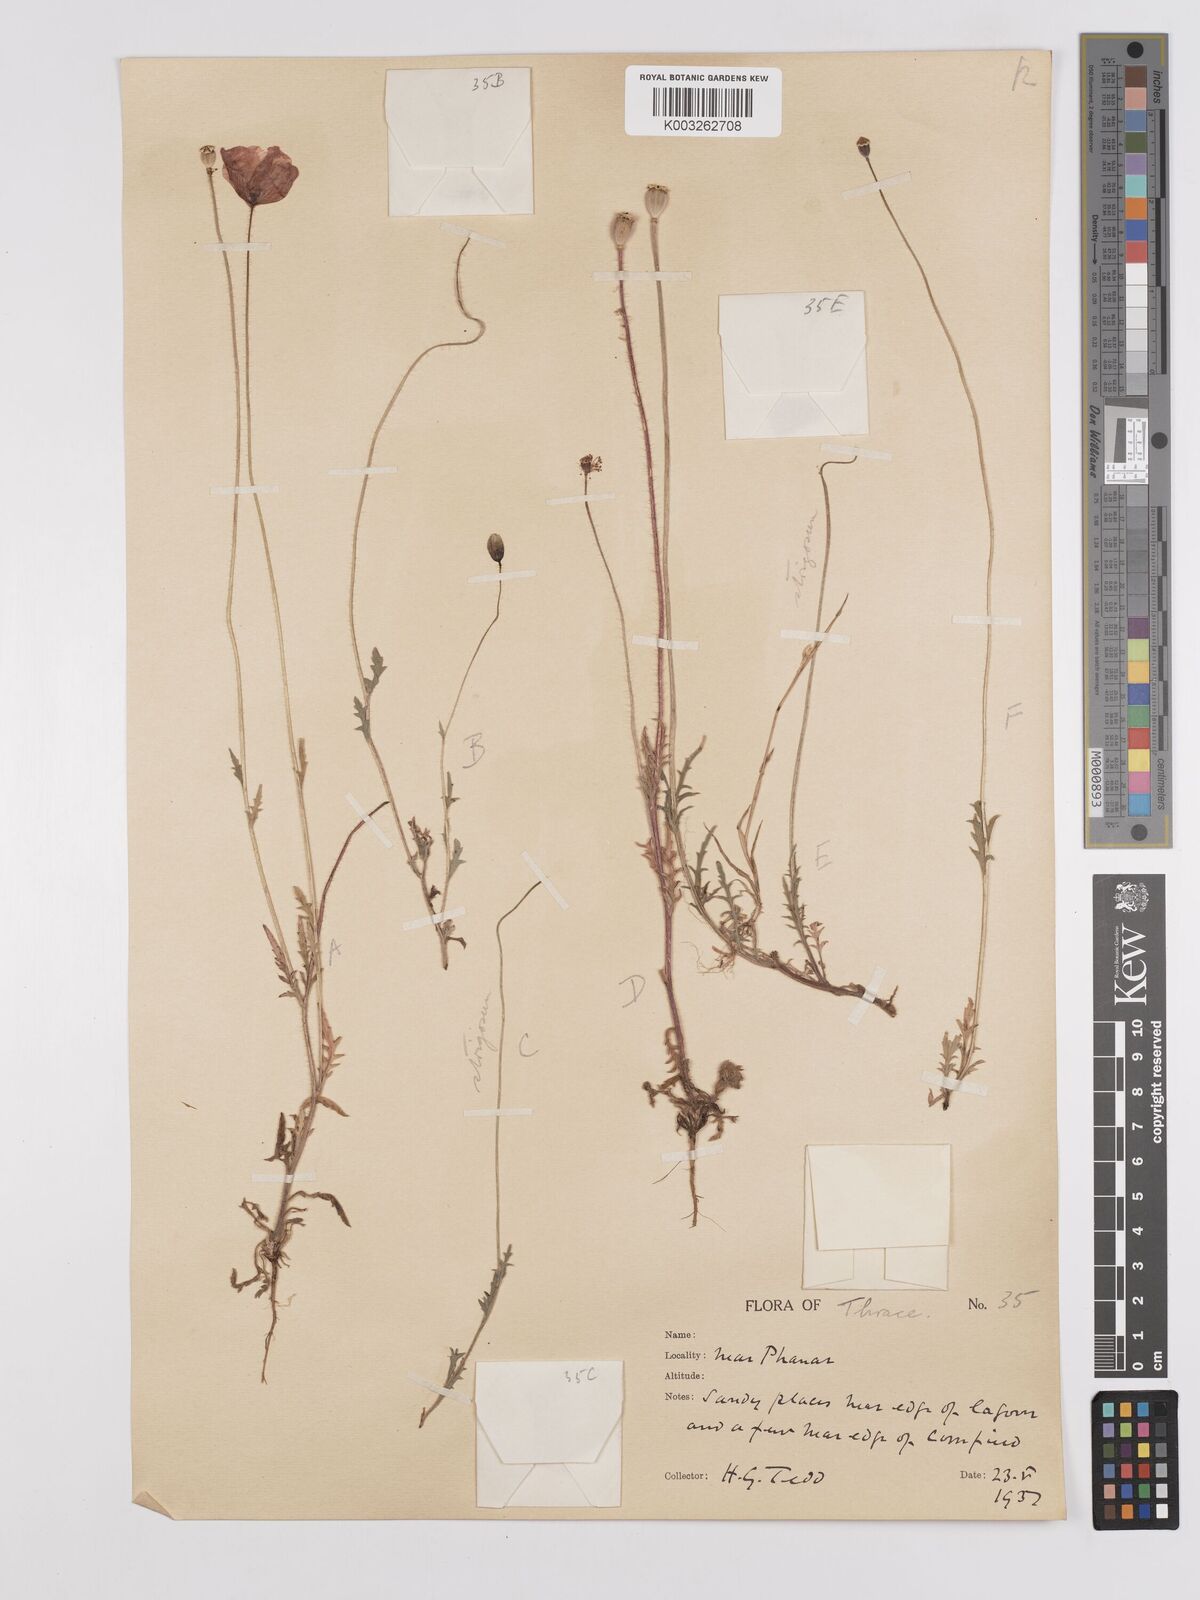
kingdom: Plantae
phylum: Tracheophyta
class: Magnoliopsida
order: Ranunculales
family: Papaveraceae
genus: Papaver
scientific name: Papaver
